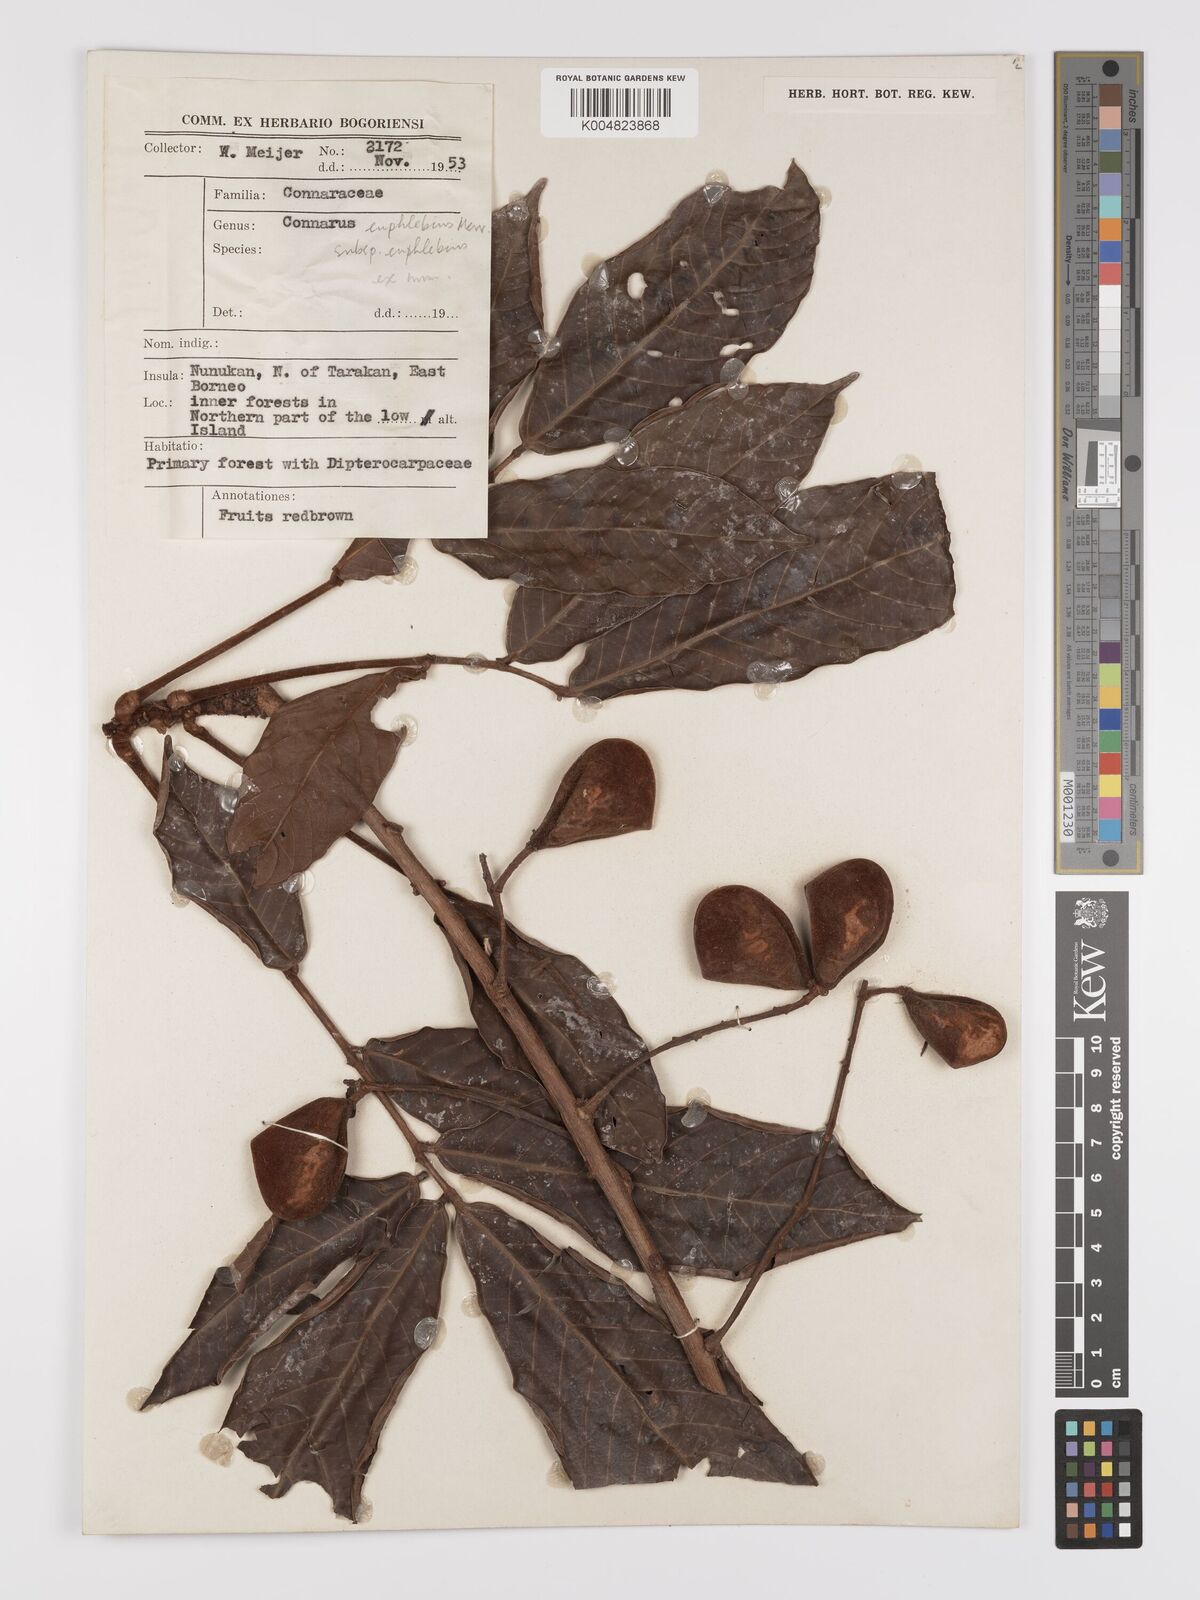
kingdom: Plantae
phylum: Tracheophyta
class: Magnoliopsida
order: Oxalidales
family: Connaraceae
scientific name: Connaraceae
